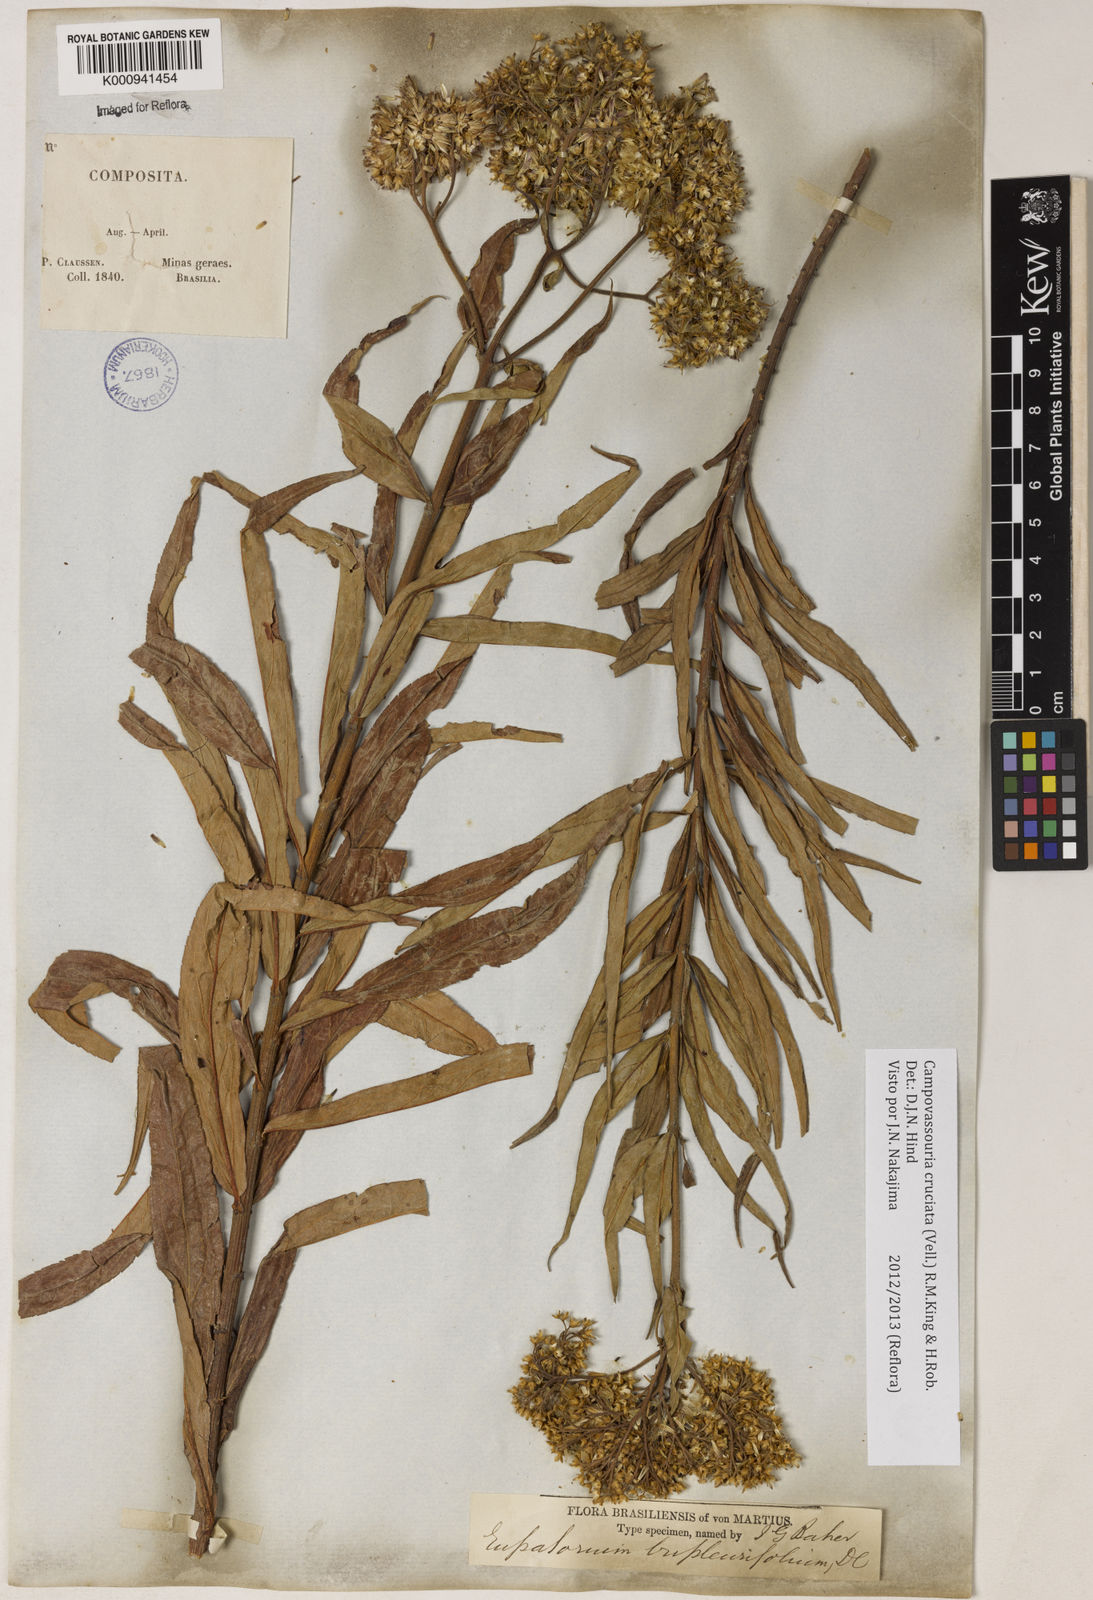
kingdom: Plantae
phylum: Tracheophyta
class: Magnoliopsida
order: Asterales
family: Asteraceae
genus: Campovassouria
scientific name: Campovassouria cruciata
